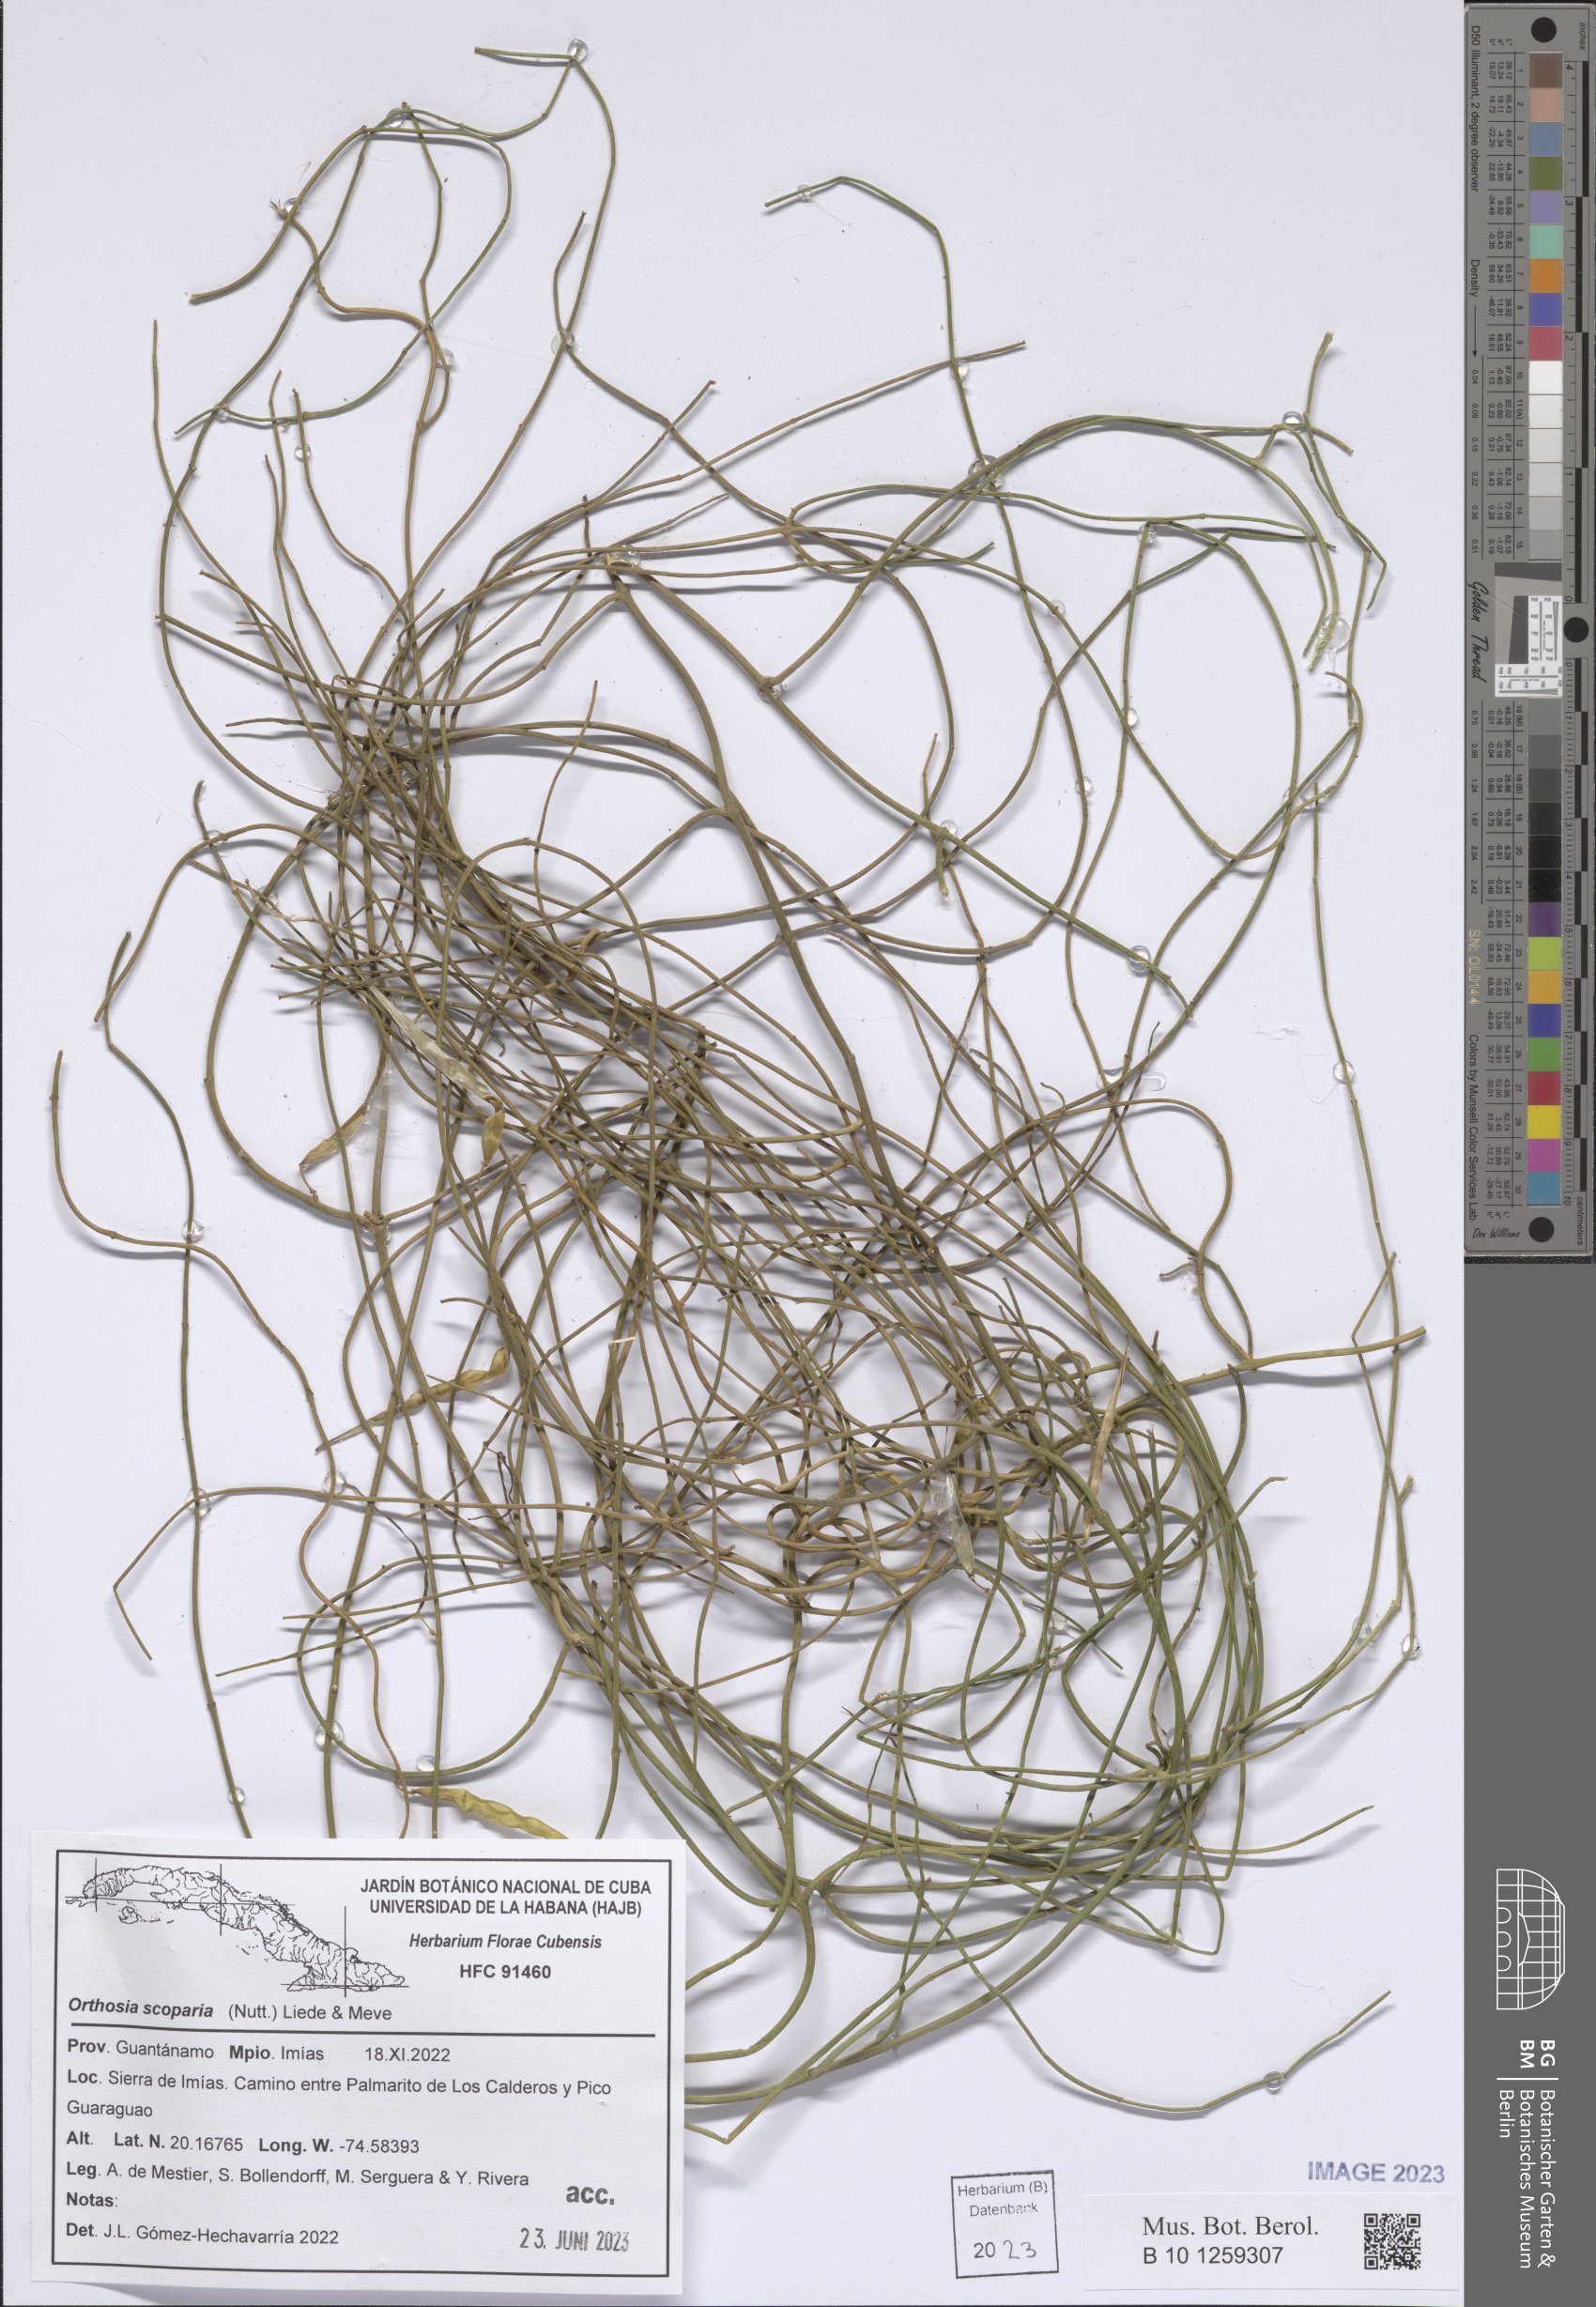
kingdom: Plantae
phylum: Tracheophyta
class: Magnoliopsida
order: Gentianales
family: Apocynaceae
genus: Orthosia
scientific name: Orthosia scoparia
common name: Leafless swallow-wort
